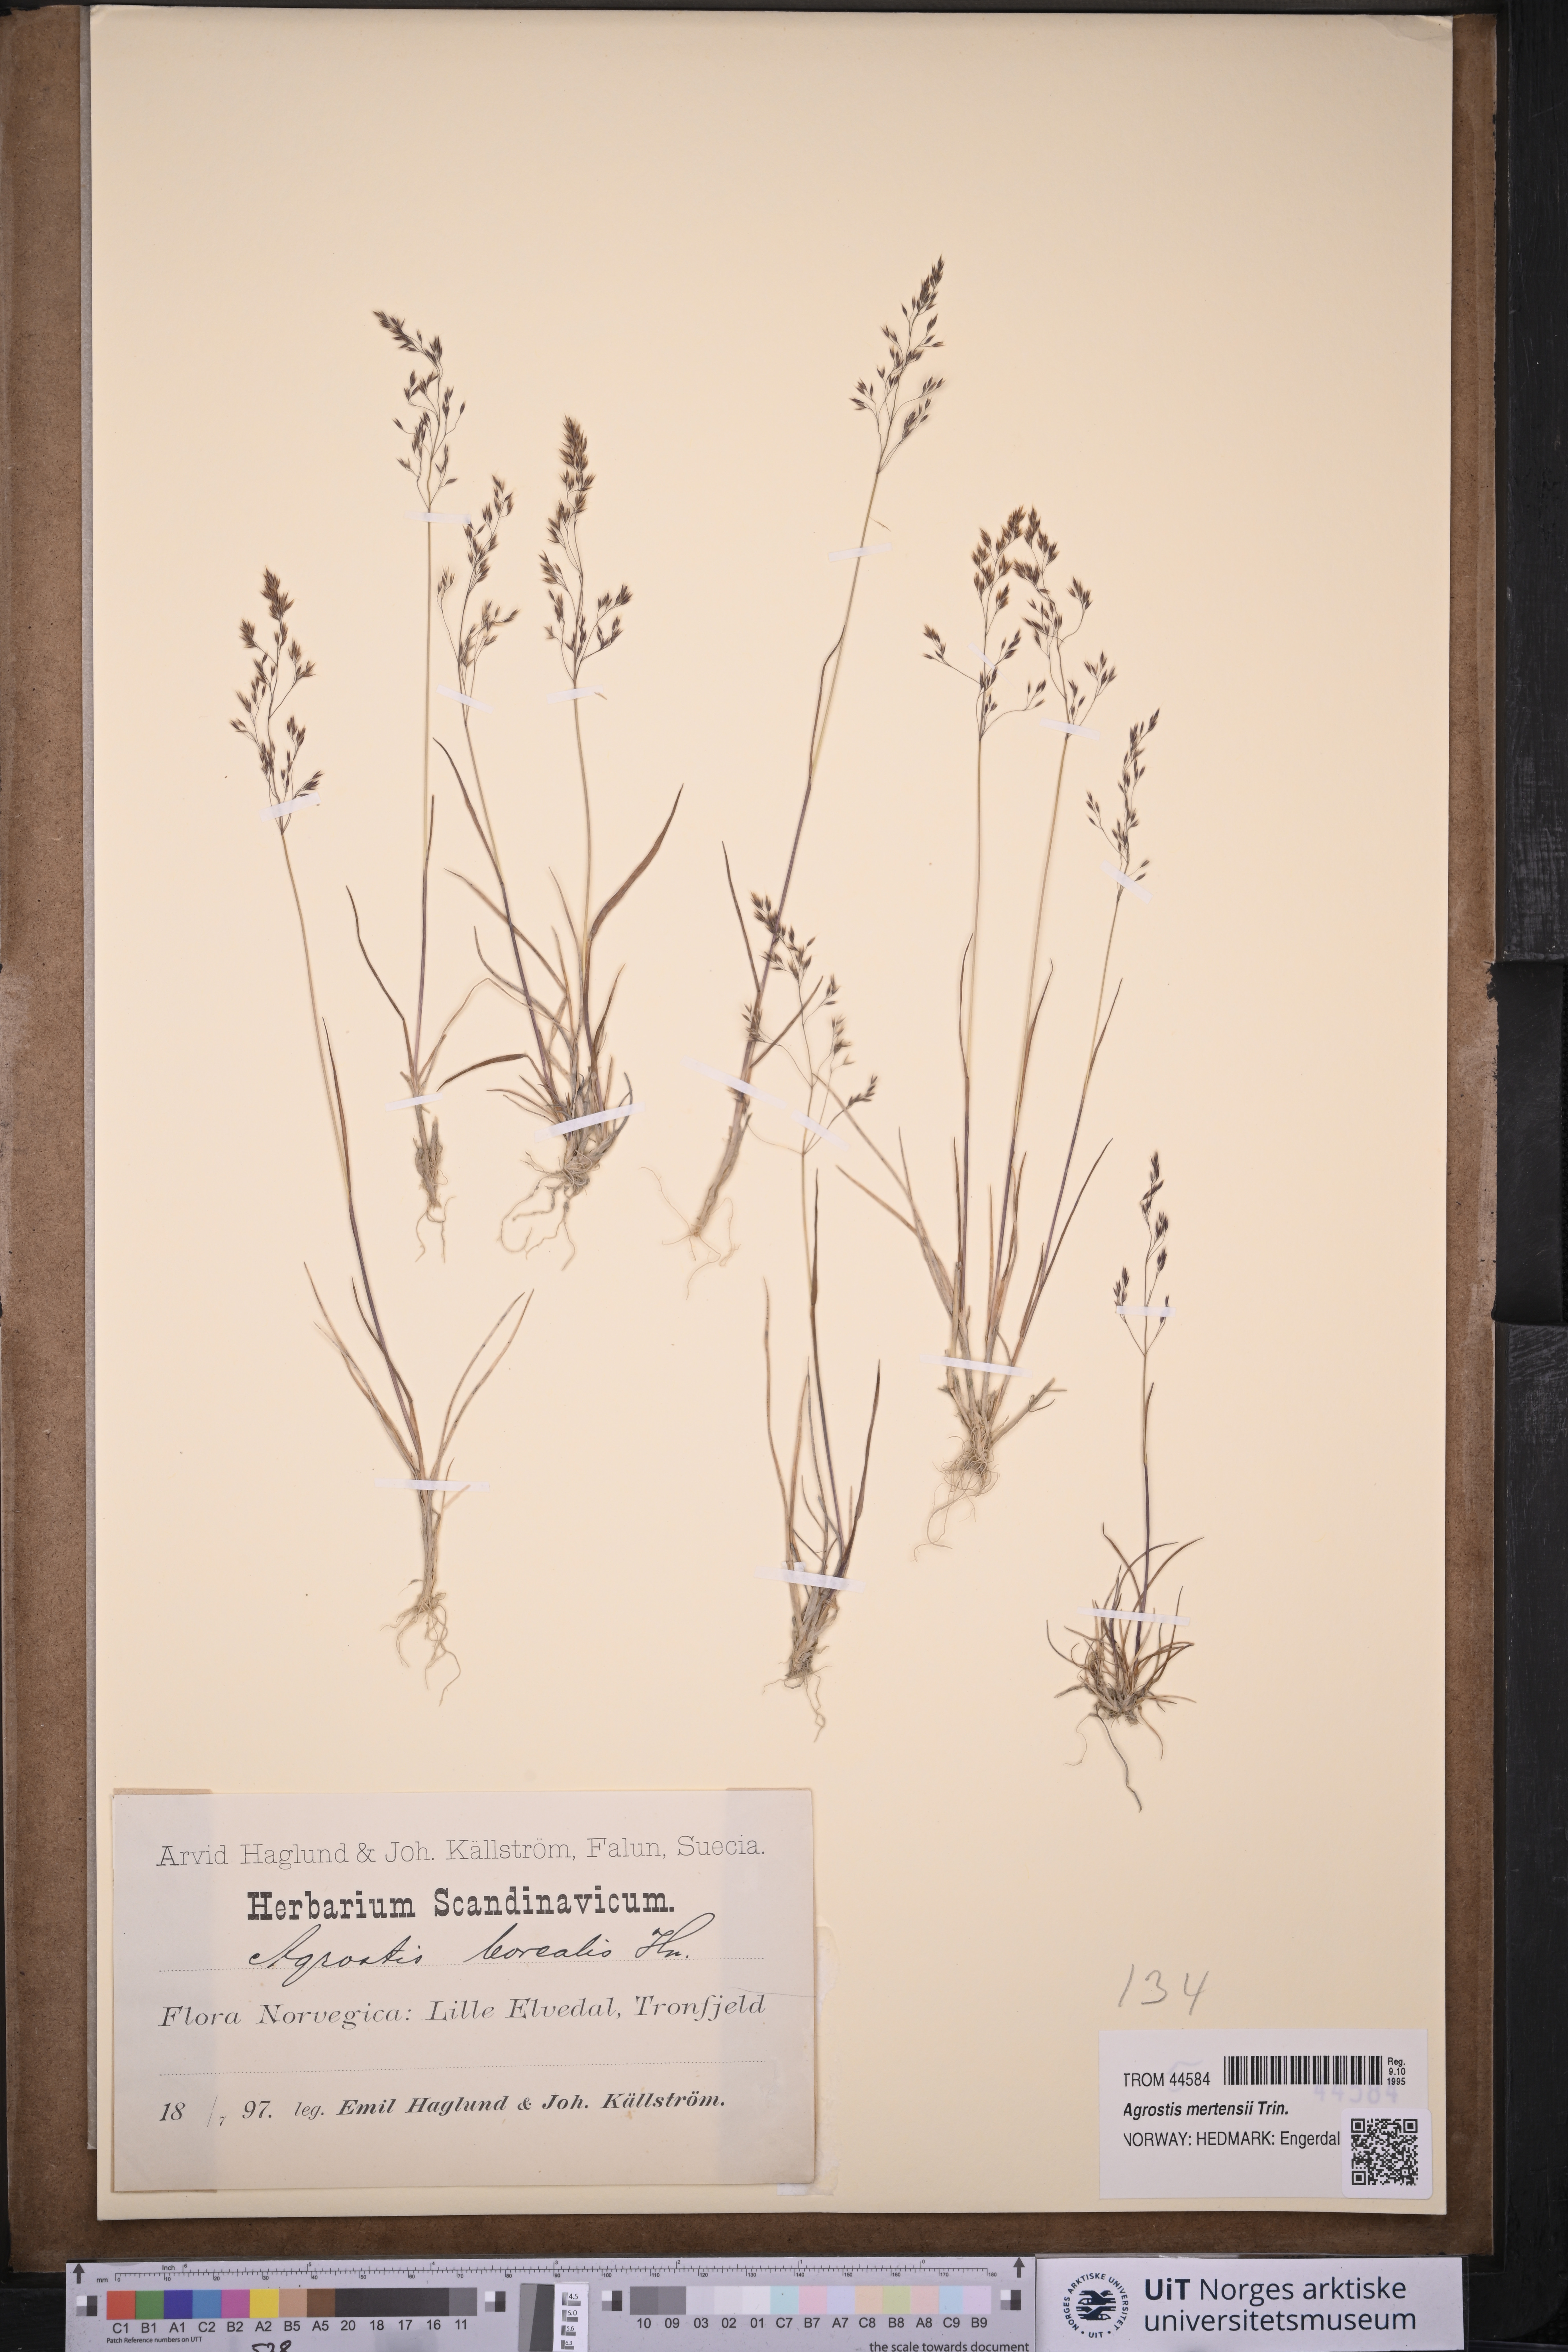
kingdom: Plantae
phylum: Tracheophyta
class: Liliopsida
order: Poales
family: Poaceae
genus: Agrostis
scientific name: Agrostis mertensii
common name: Northern bent
